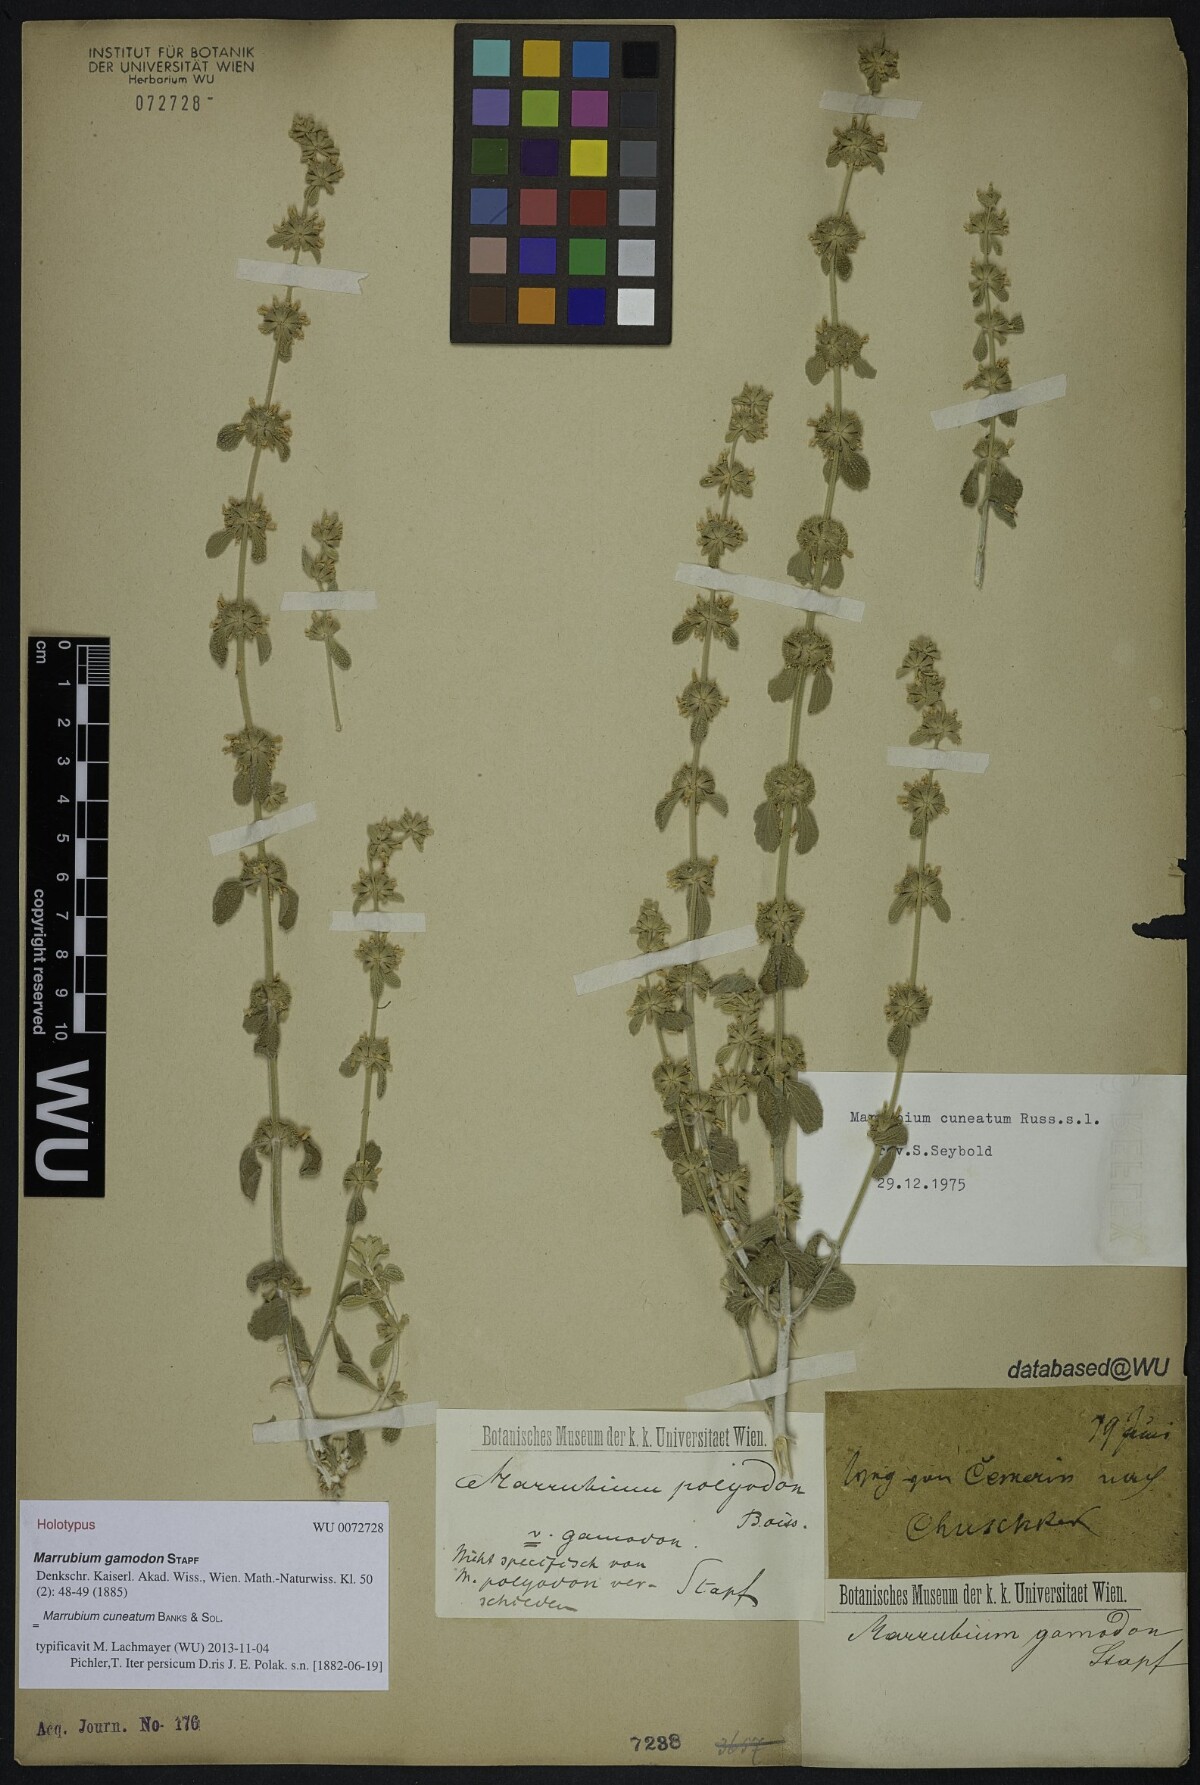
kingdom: Plantae
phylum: Tracheophyta
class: Magnoliopsida
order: Lamiales
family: Lamiaceae
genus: Marrubium
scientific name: Marrubium cuneatum
